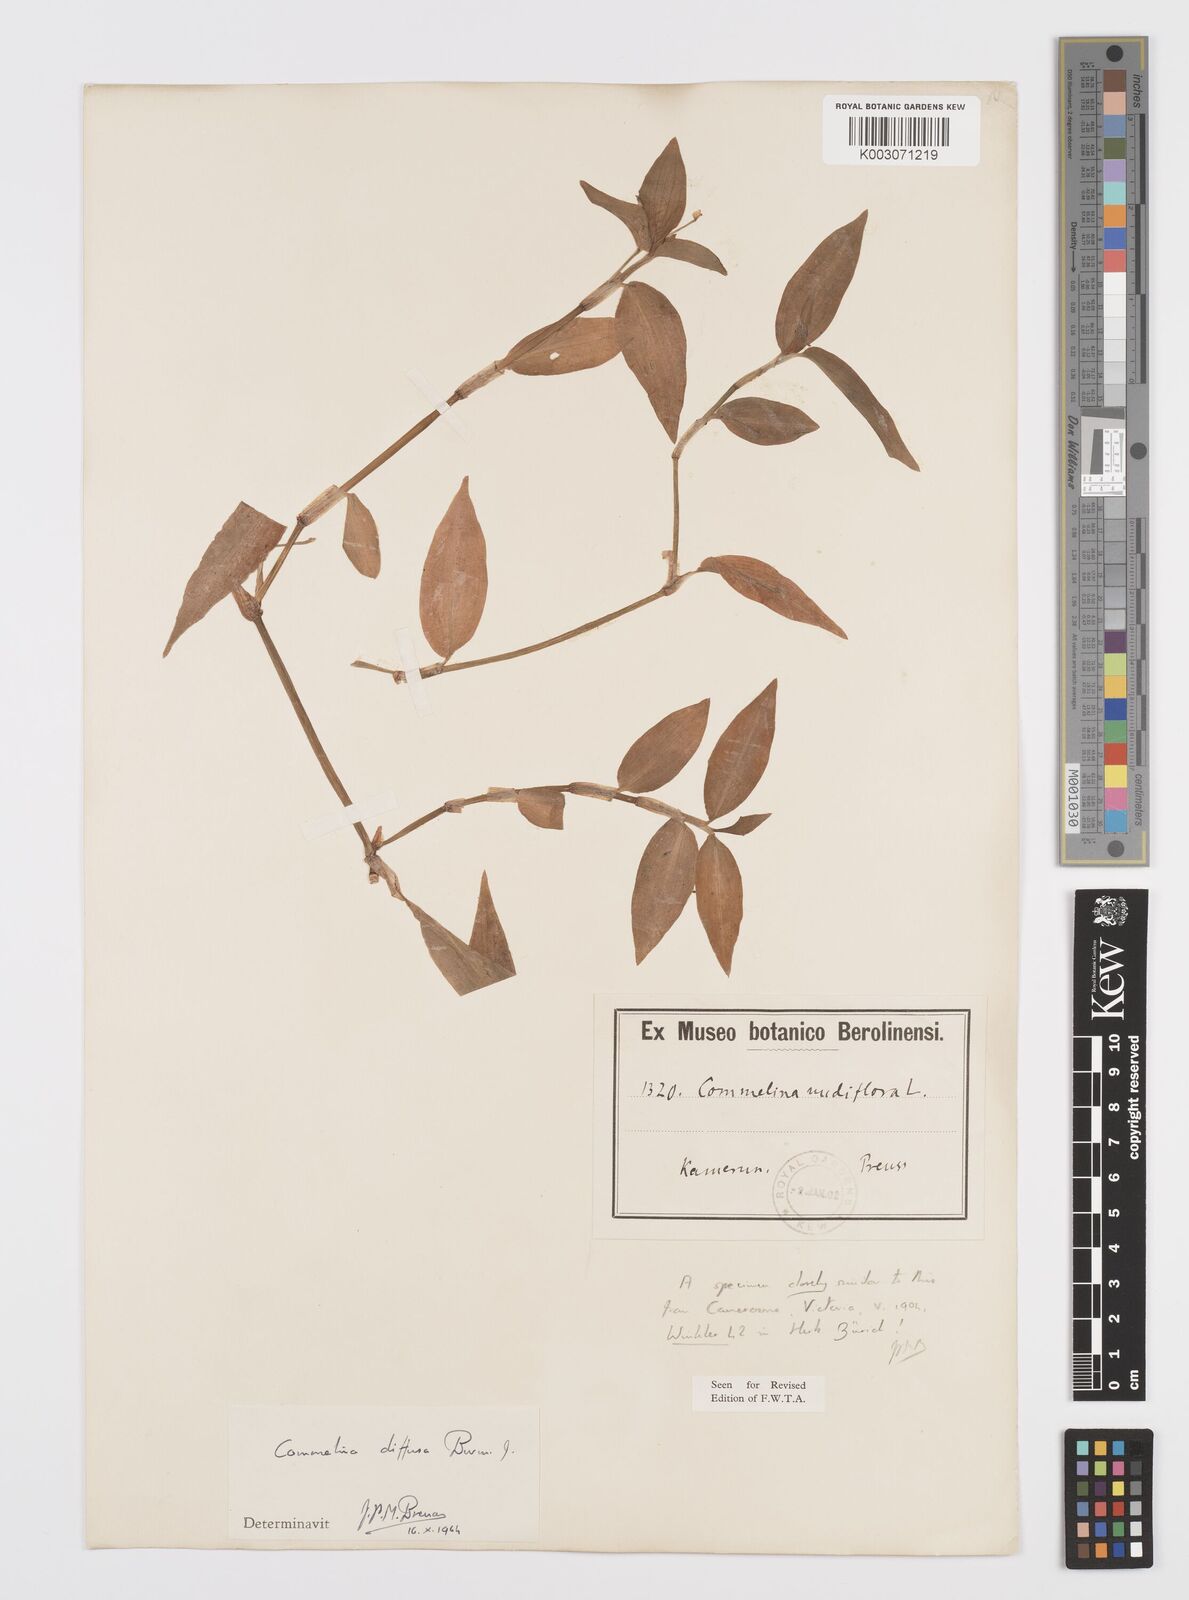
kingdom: Plantae
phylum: Tracheophyta
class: Liliopsida
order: Commelinales
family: Commelinaceae
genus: Commelina
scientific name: Commelina diffusa
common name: Climbing dayflower
